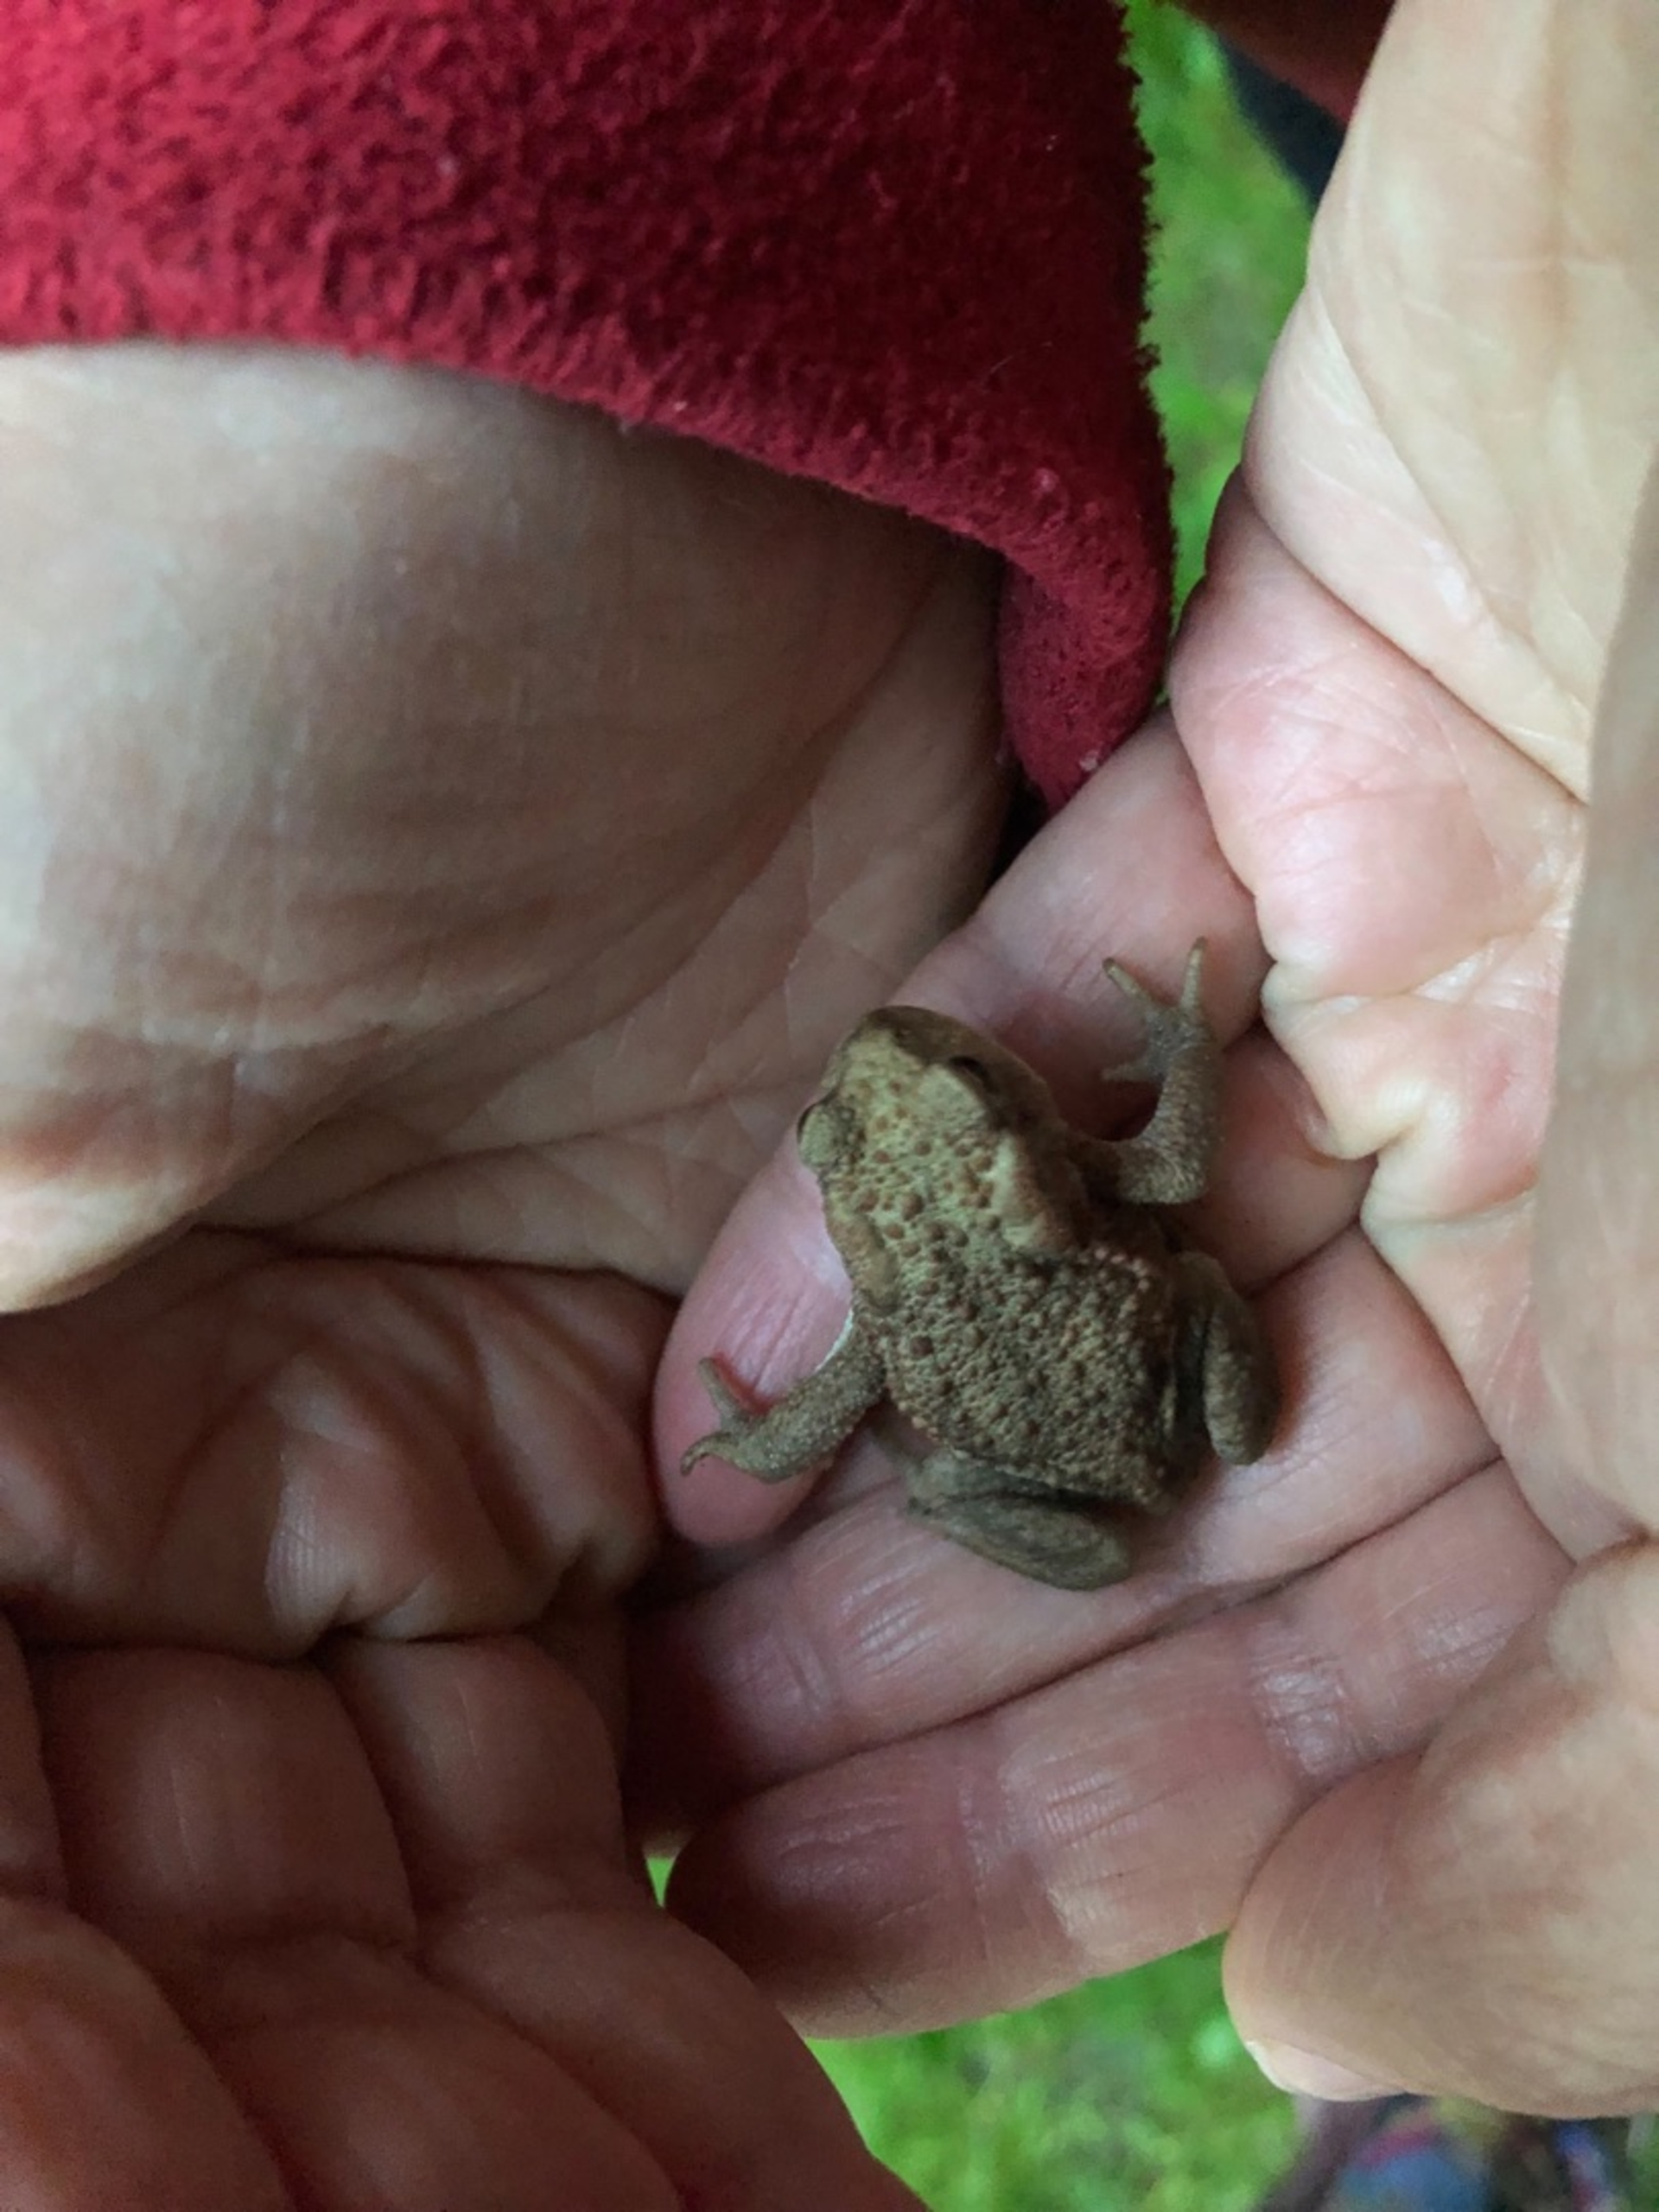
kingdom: Animalia
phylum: Chordata
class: Amphibia
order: Anura
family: Bufonidae
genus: Bufo
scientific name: Bufo bufo
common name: Skrubtudse
